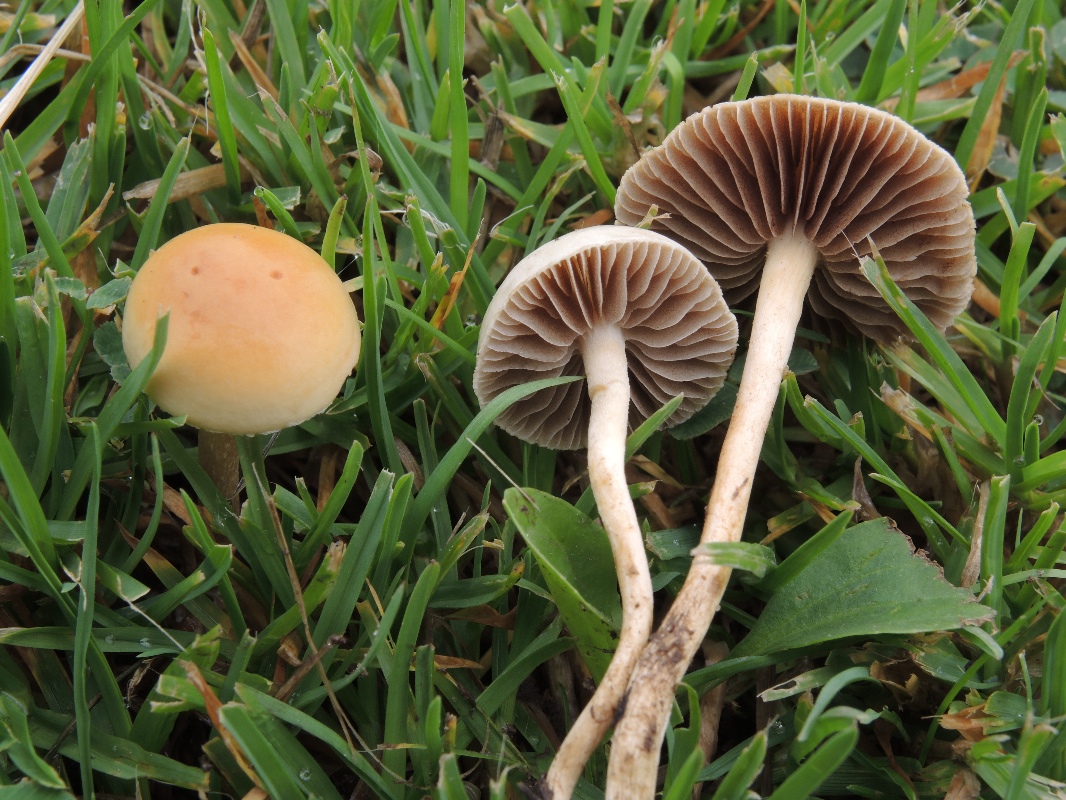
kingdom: Fungi
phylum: Basidiomycota
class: Agaricomycetes
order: Agaricales
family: Strophariaceae
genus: Agrocybe
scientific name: Agrocybe pediades
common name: almindelig agerhat
